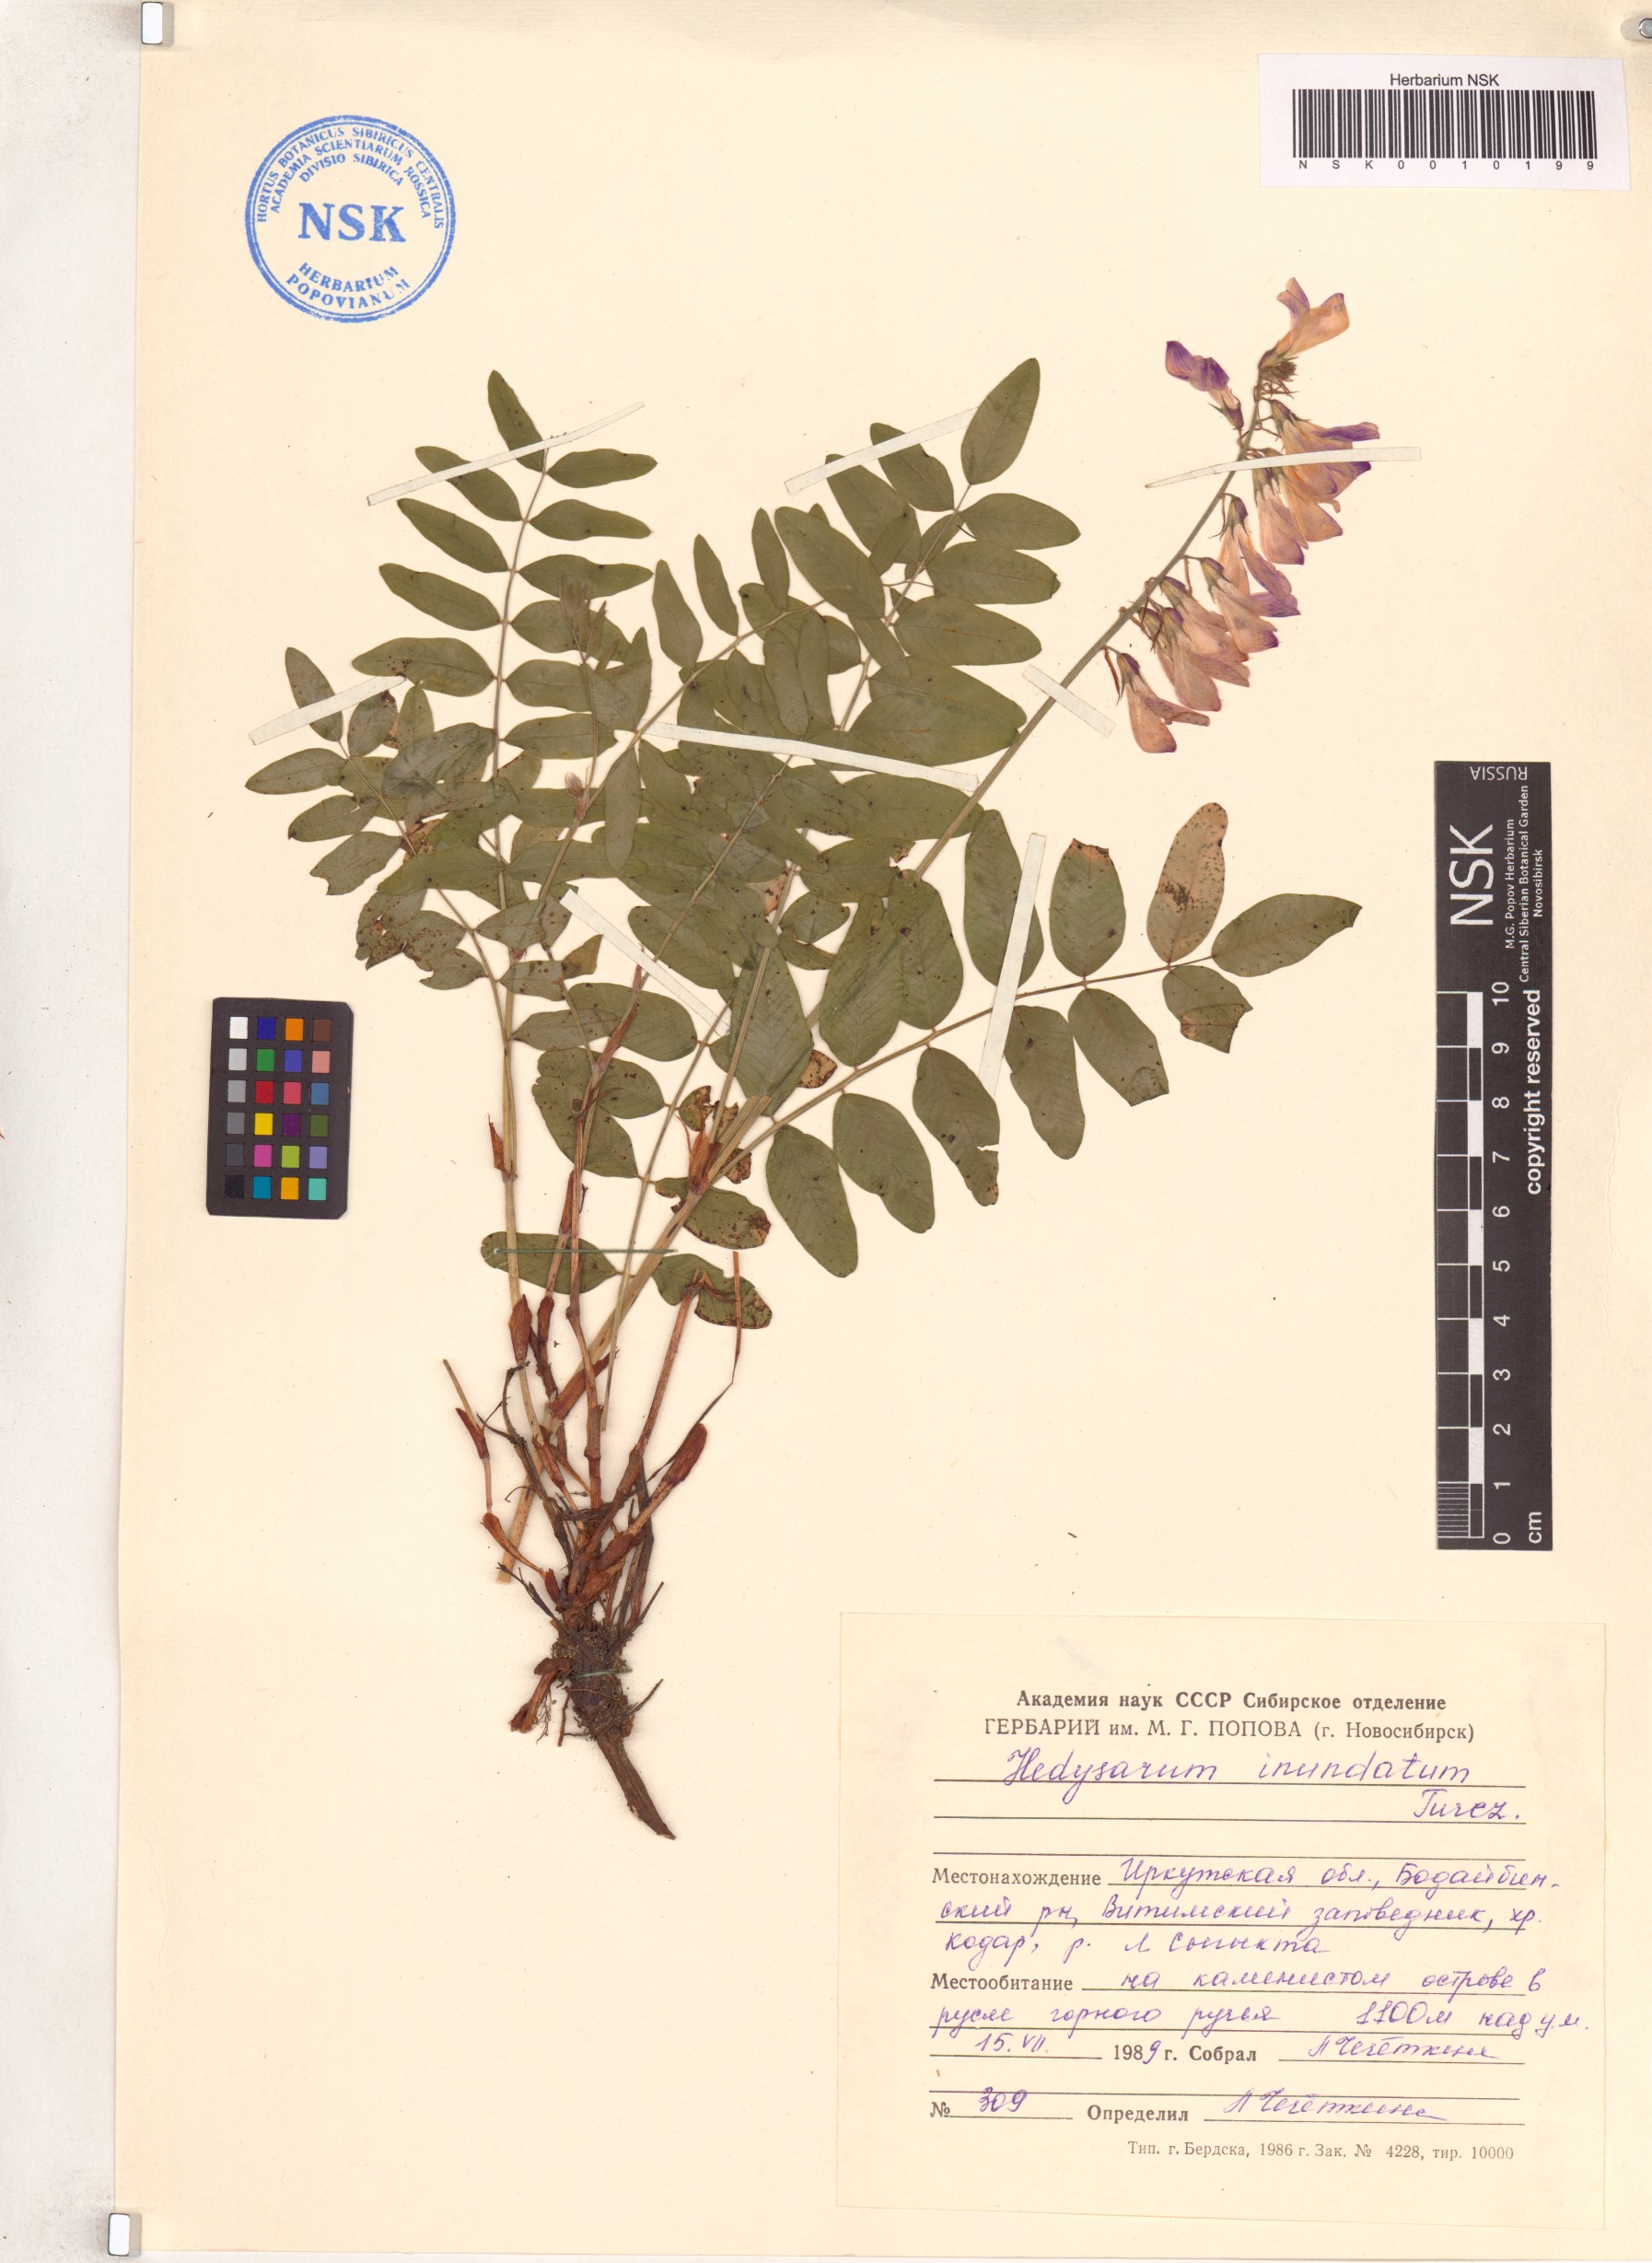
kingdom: Plantae
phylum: Tracheophyta
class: Magnoliopsida
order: Fabales
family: Fabaceae
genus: Hedysarum
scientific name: Hedysarum inundatum
